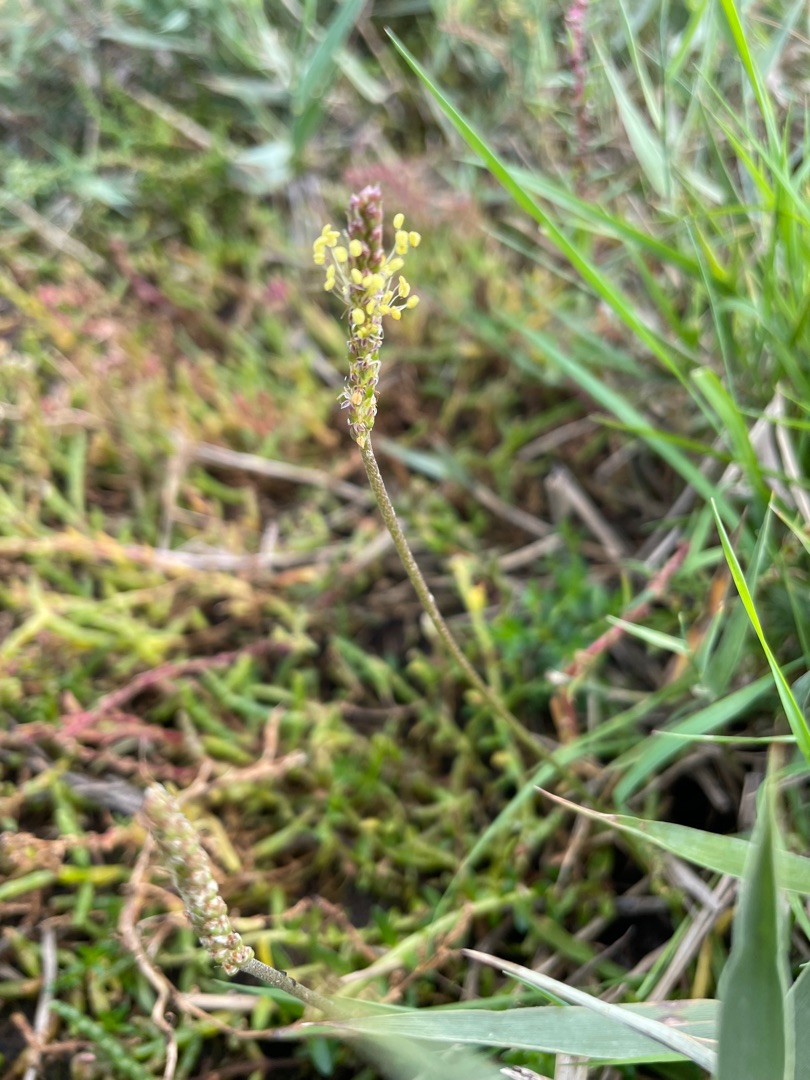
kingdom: Plantae
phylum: Tracheophyta
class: Magnoliopsida
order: Lamiales
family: Plantaginaceae
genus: Plantago
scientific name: Plantago maritima
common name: Strand-vejbred
